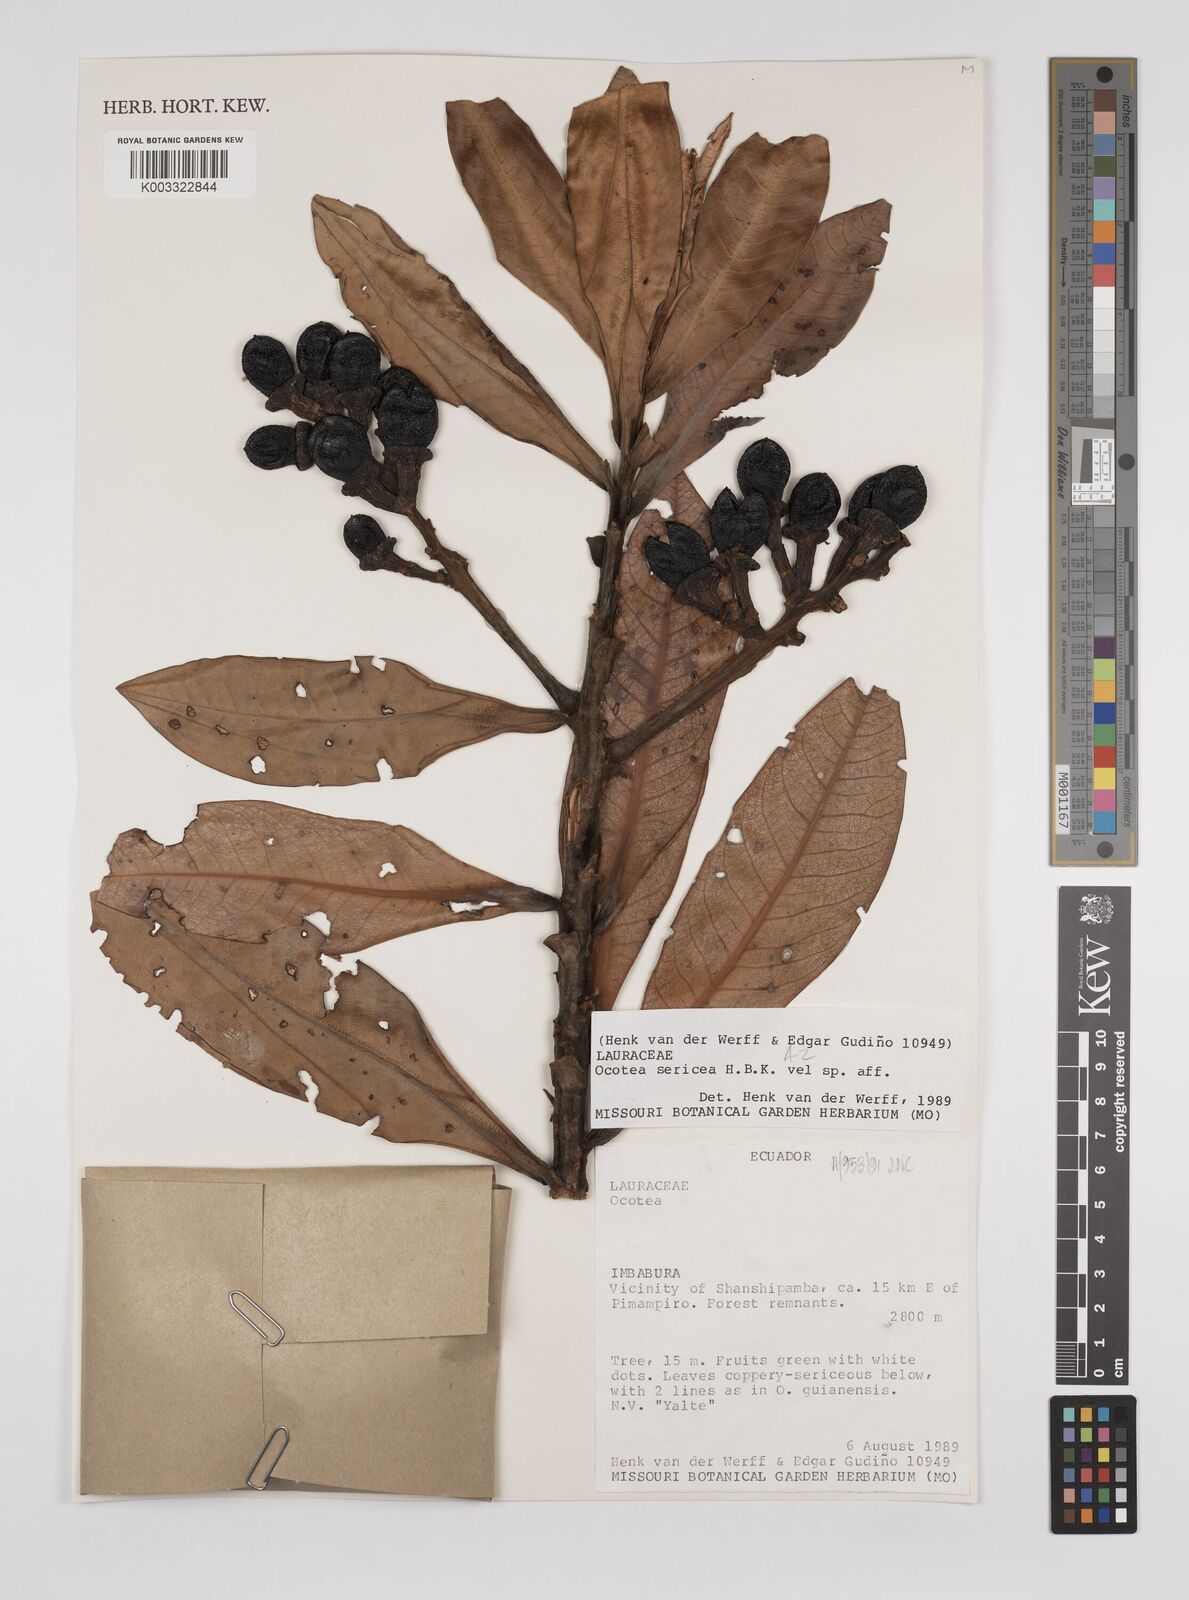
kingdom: Plantae
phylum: Tracheophyta
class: Magnoliopsida
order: Laurales
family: Lauraceae
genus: Ocotea
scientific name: Ocotea
